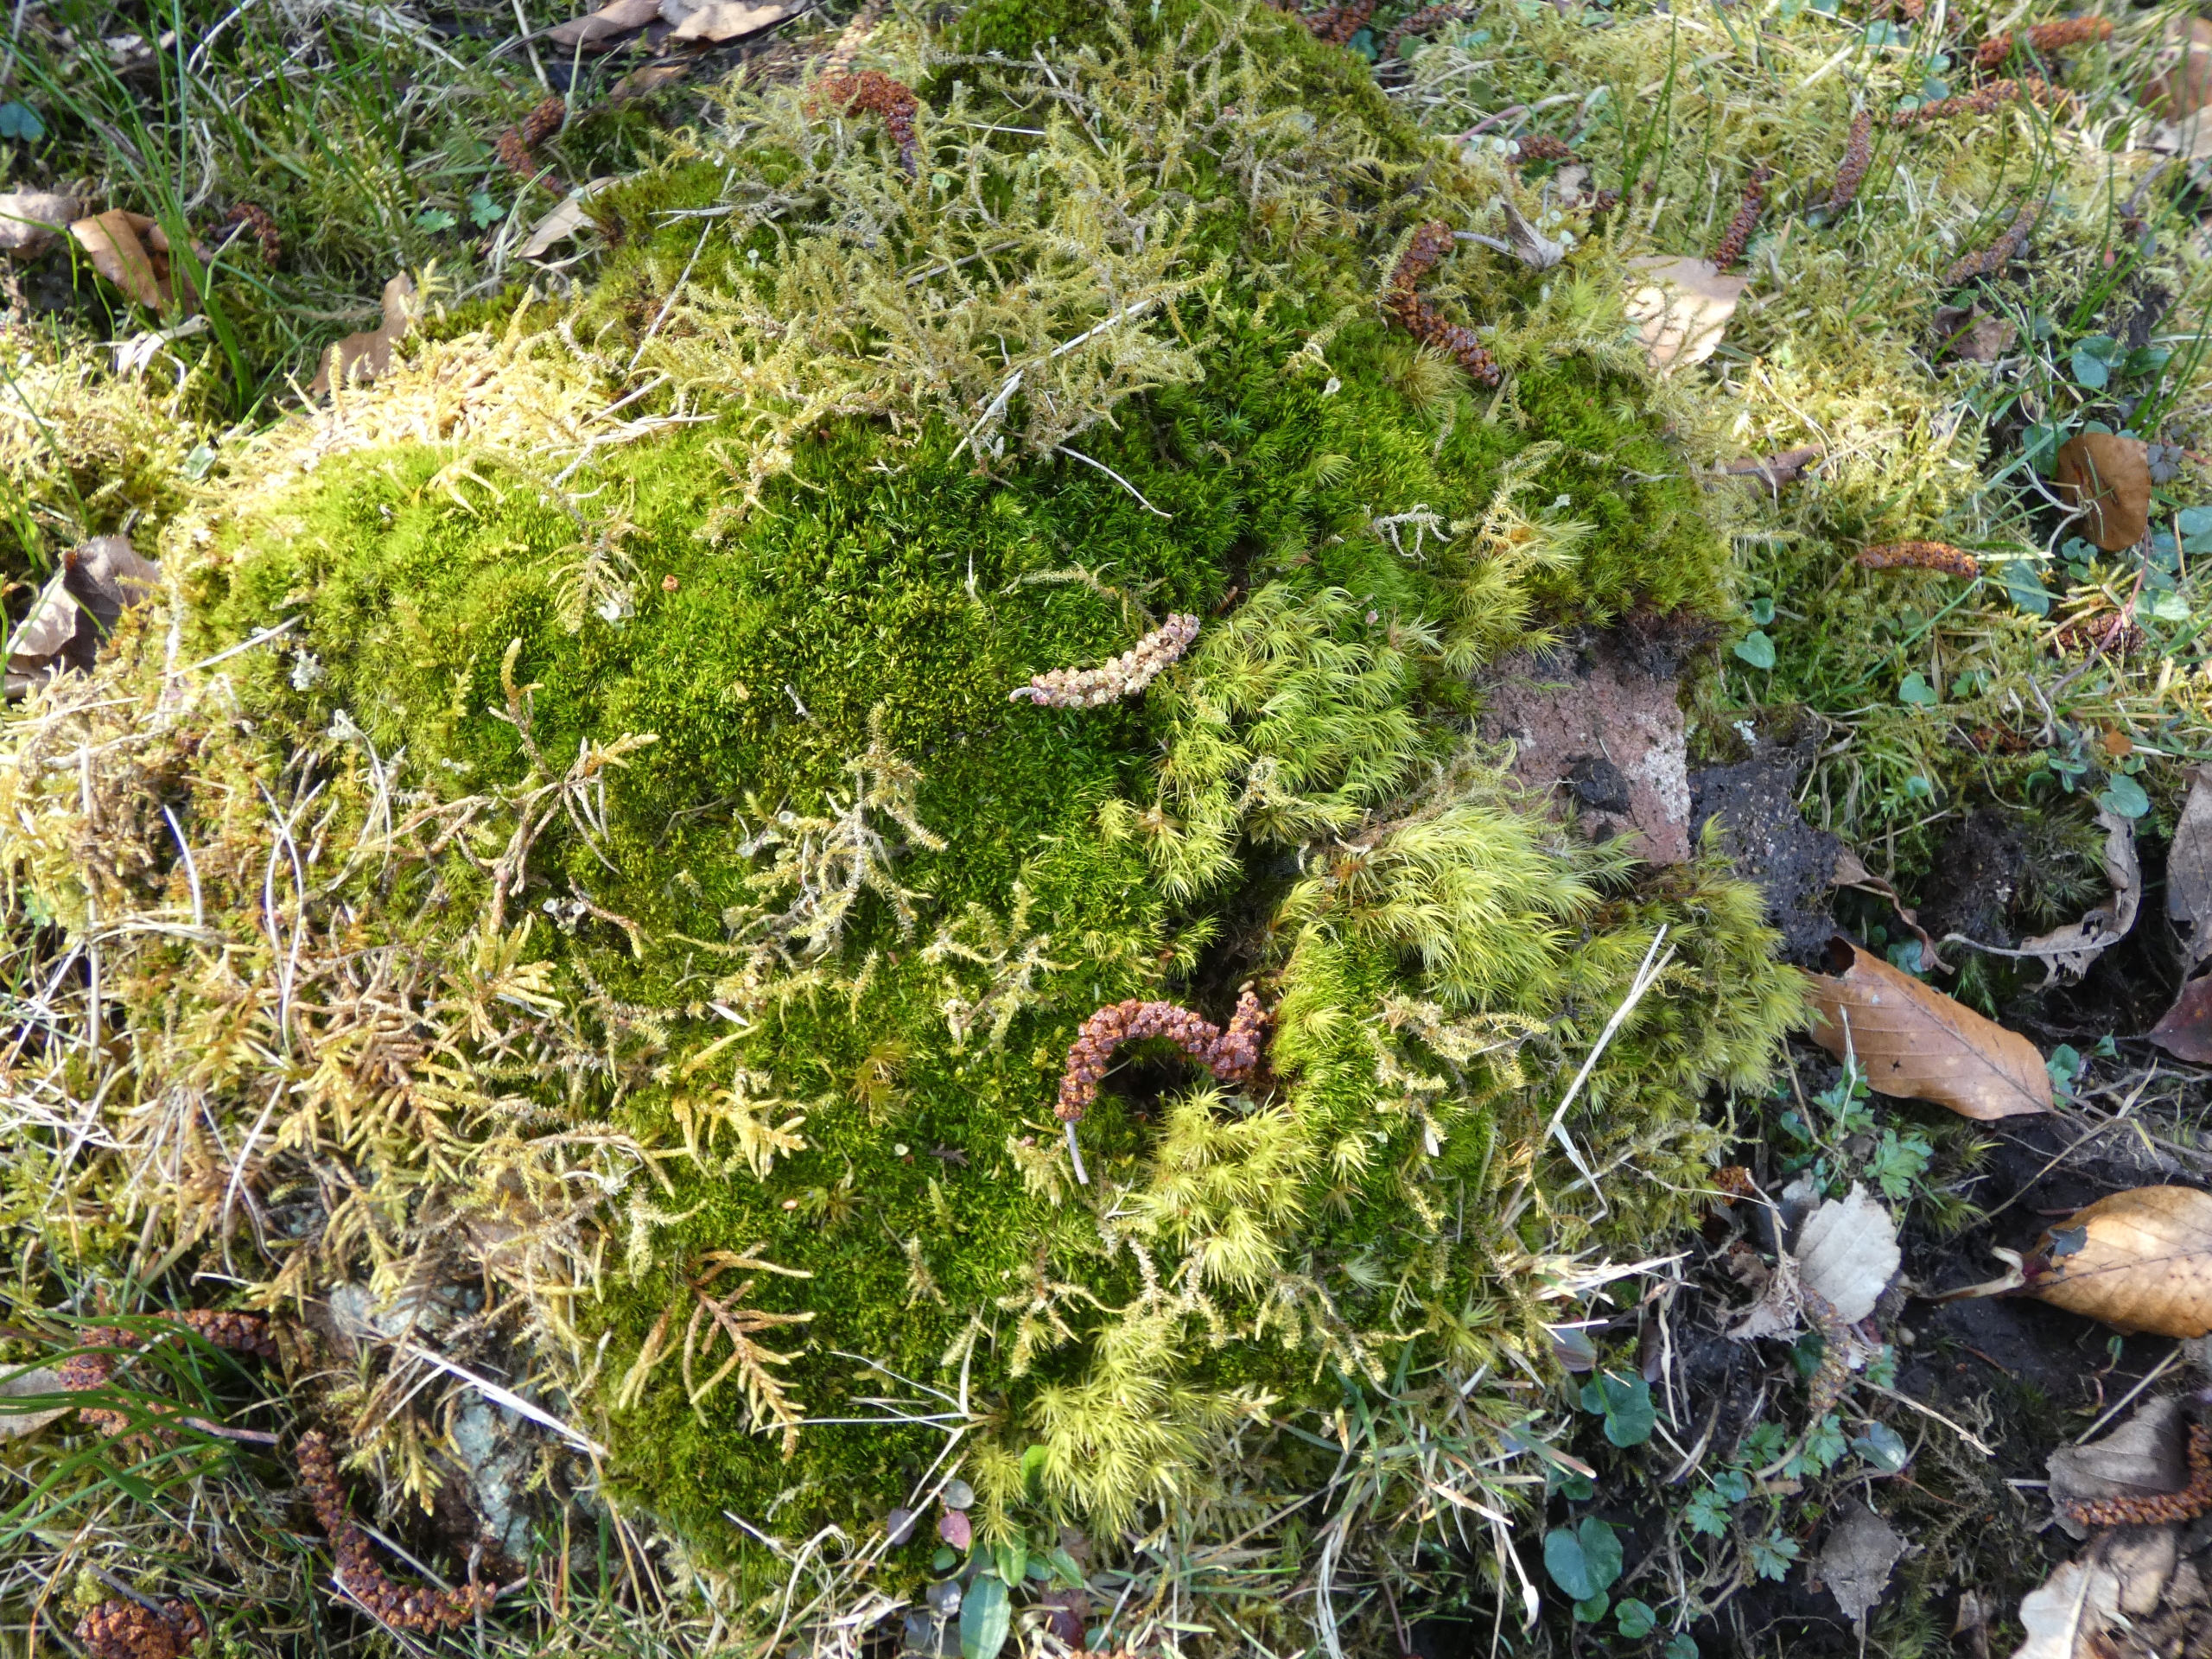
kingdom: Plantae
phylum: Bryophyta
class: Bryopsida
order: Dicranales
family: Leucobryaceae
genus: Campylopus
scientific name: Campylopus flexuosus
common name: Filtet bredribbe
